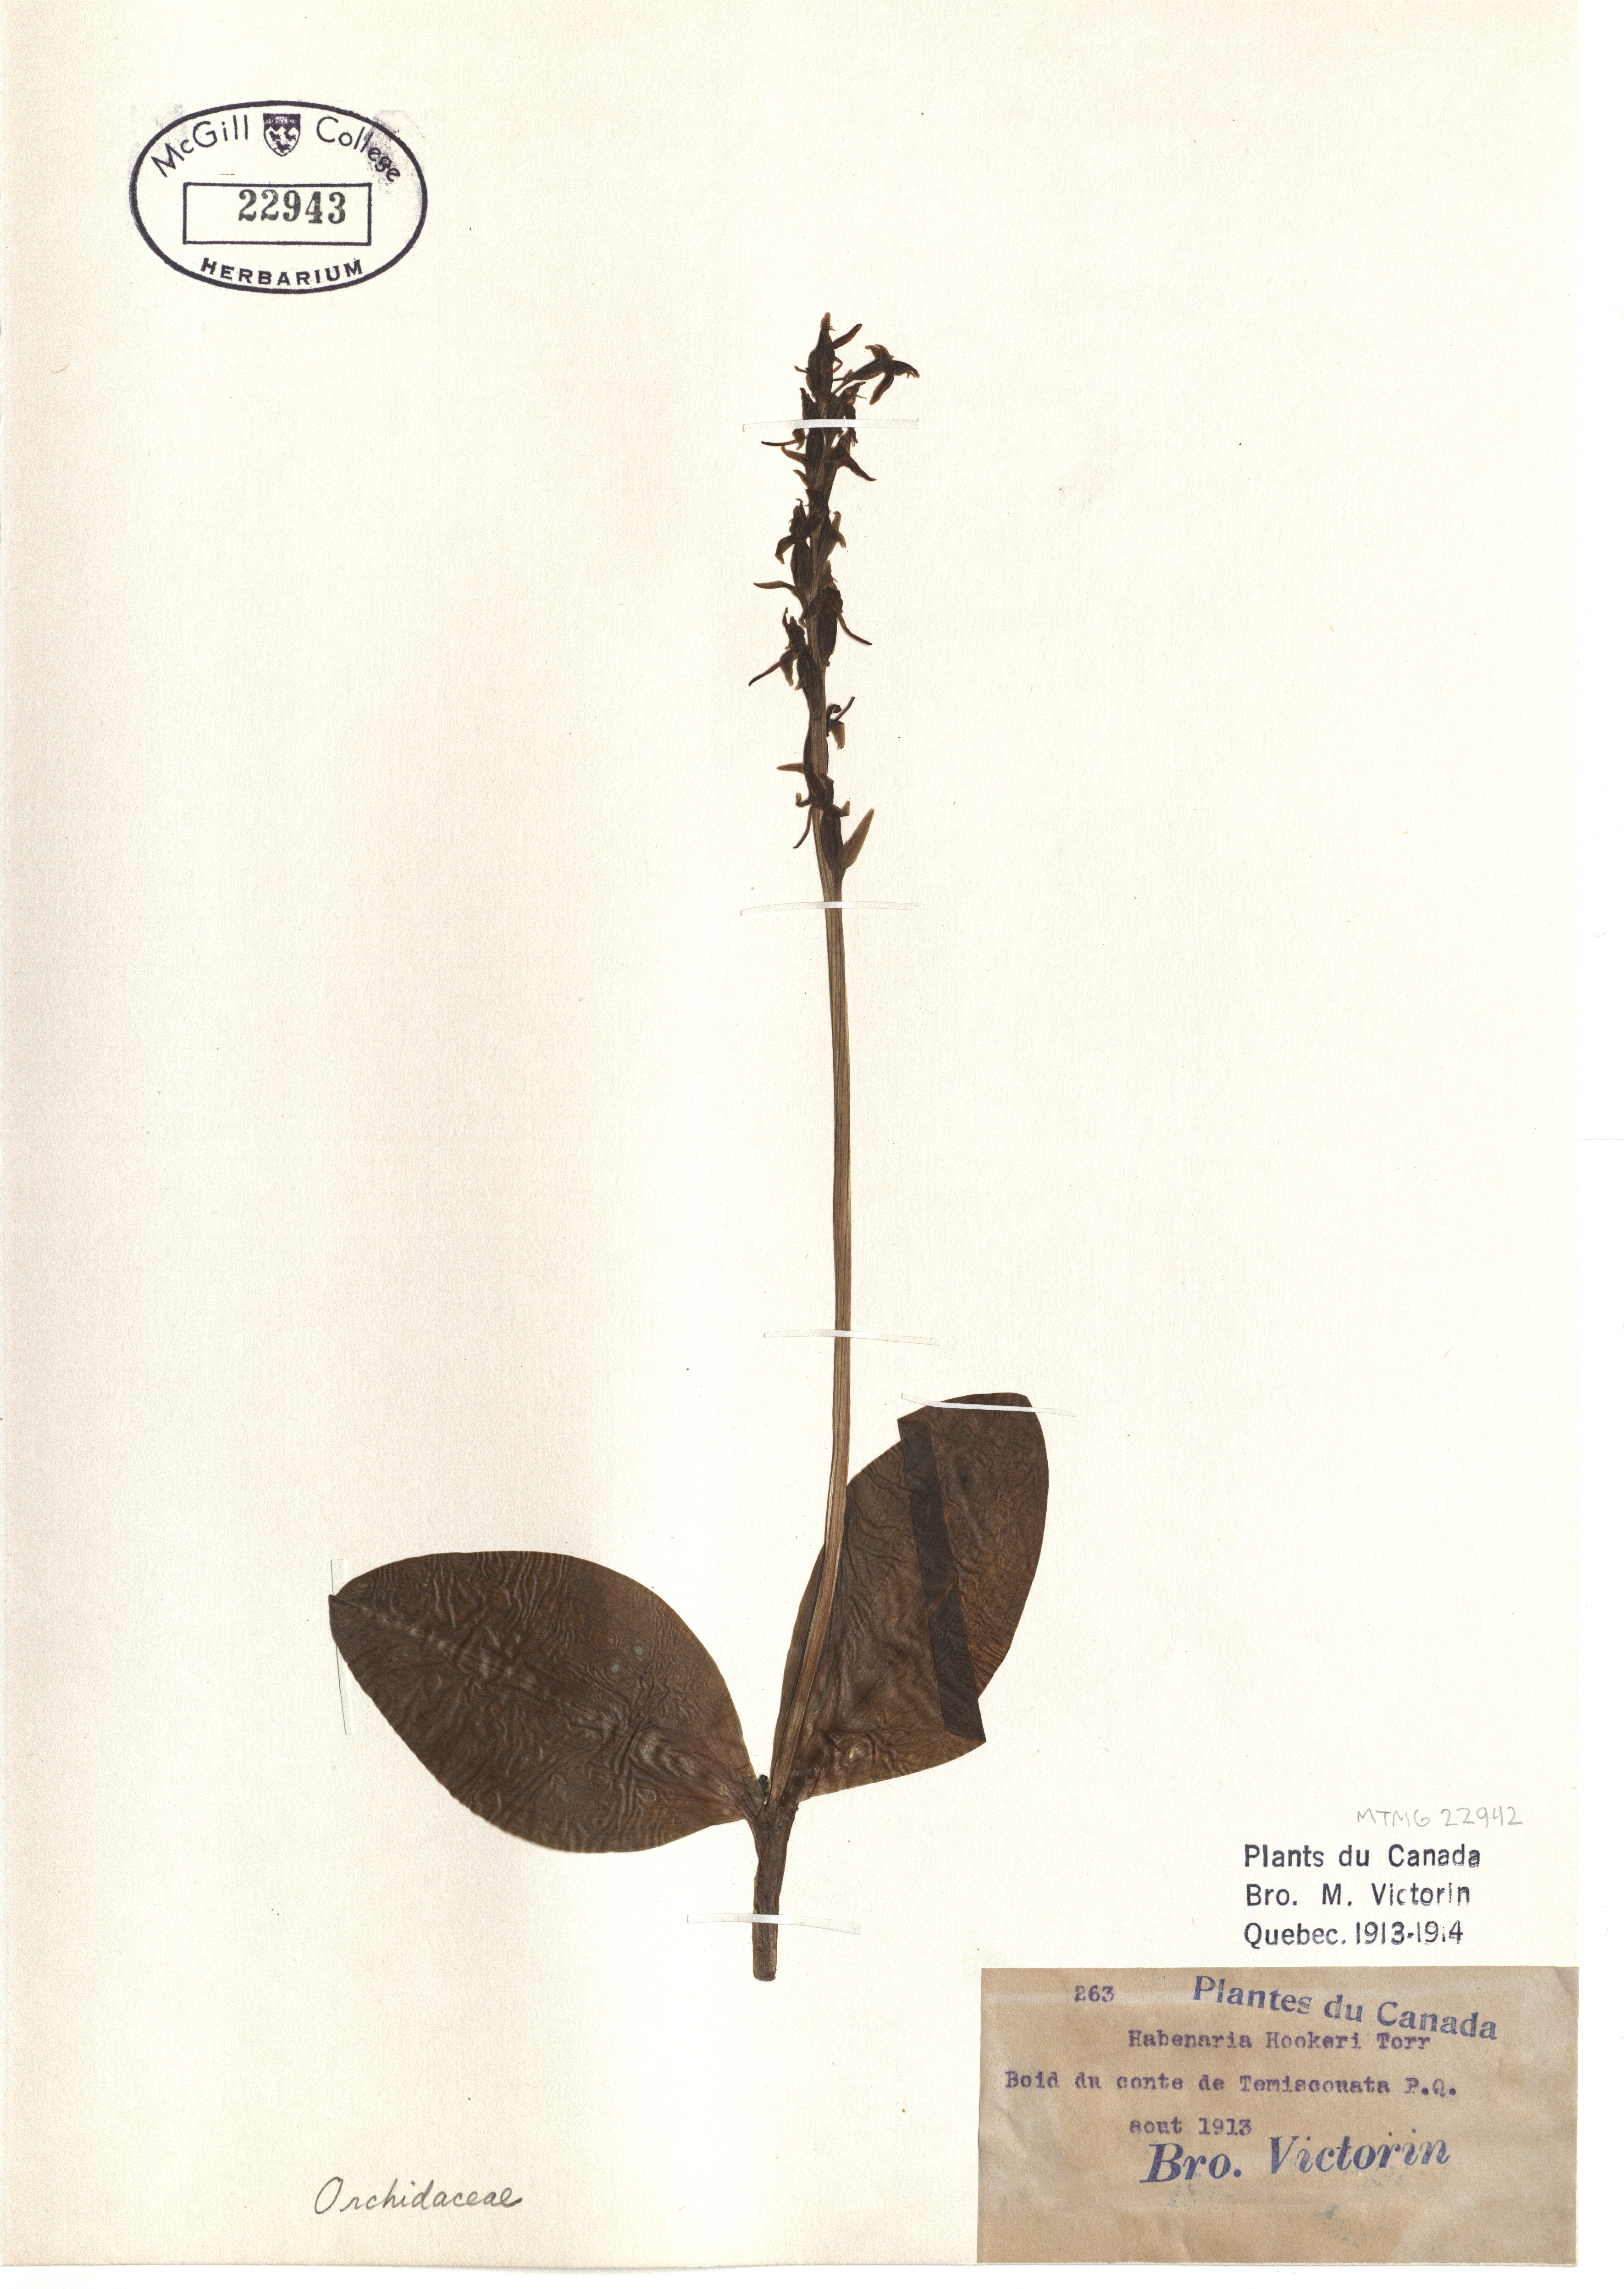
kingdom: Plantae
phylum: Tracheophyta
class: Liliopsida
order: Asparagales
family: Orchidaceae
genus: Platanthera
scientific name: Platanthera clavellata
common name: Club-spur orchid
